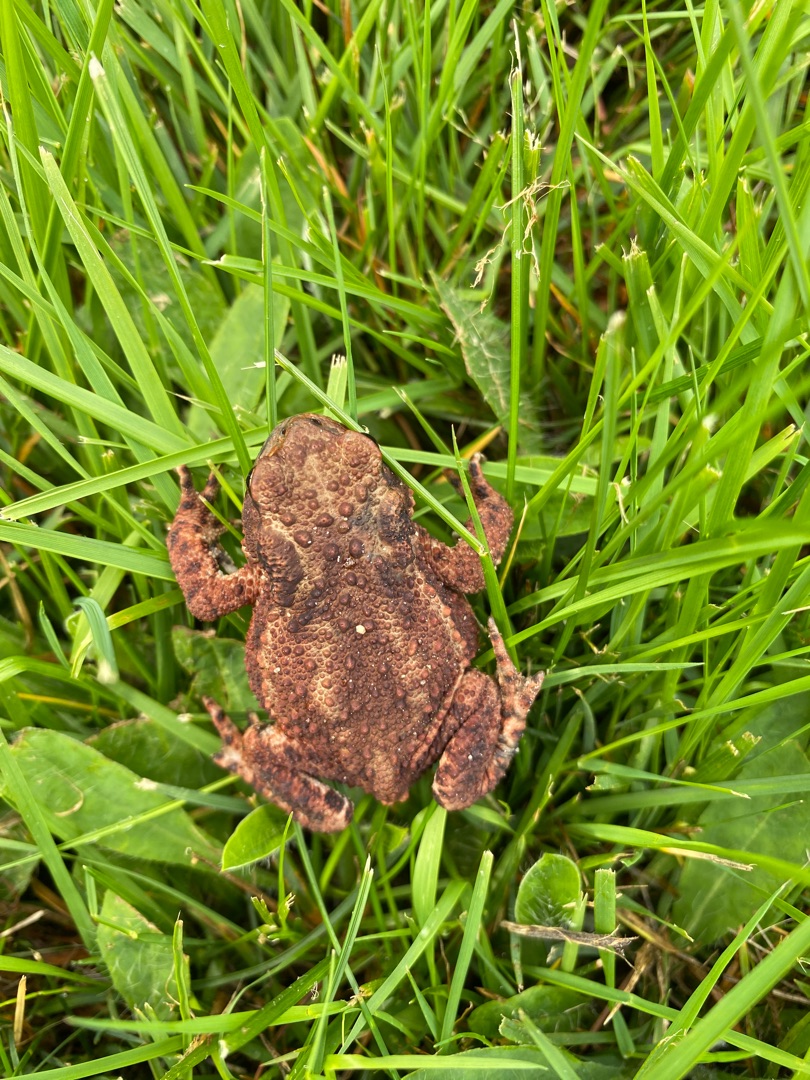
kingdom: Animalia
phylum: Chordata
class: Amphibia
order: Anura
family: Bufonidae
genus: Bufo
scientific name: Bufo bufo
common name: Skrubtudse
